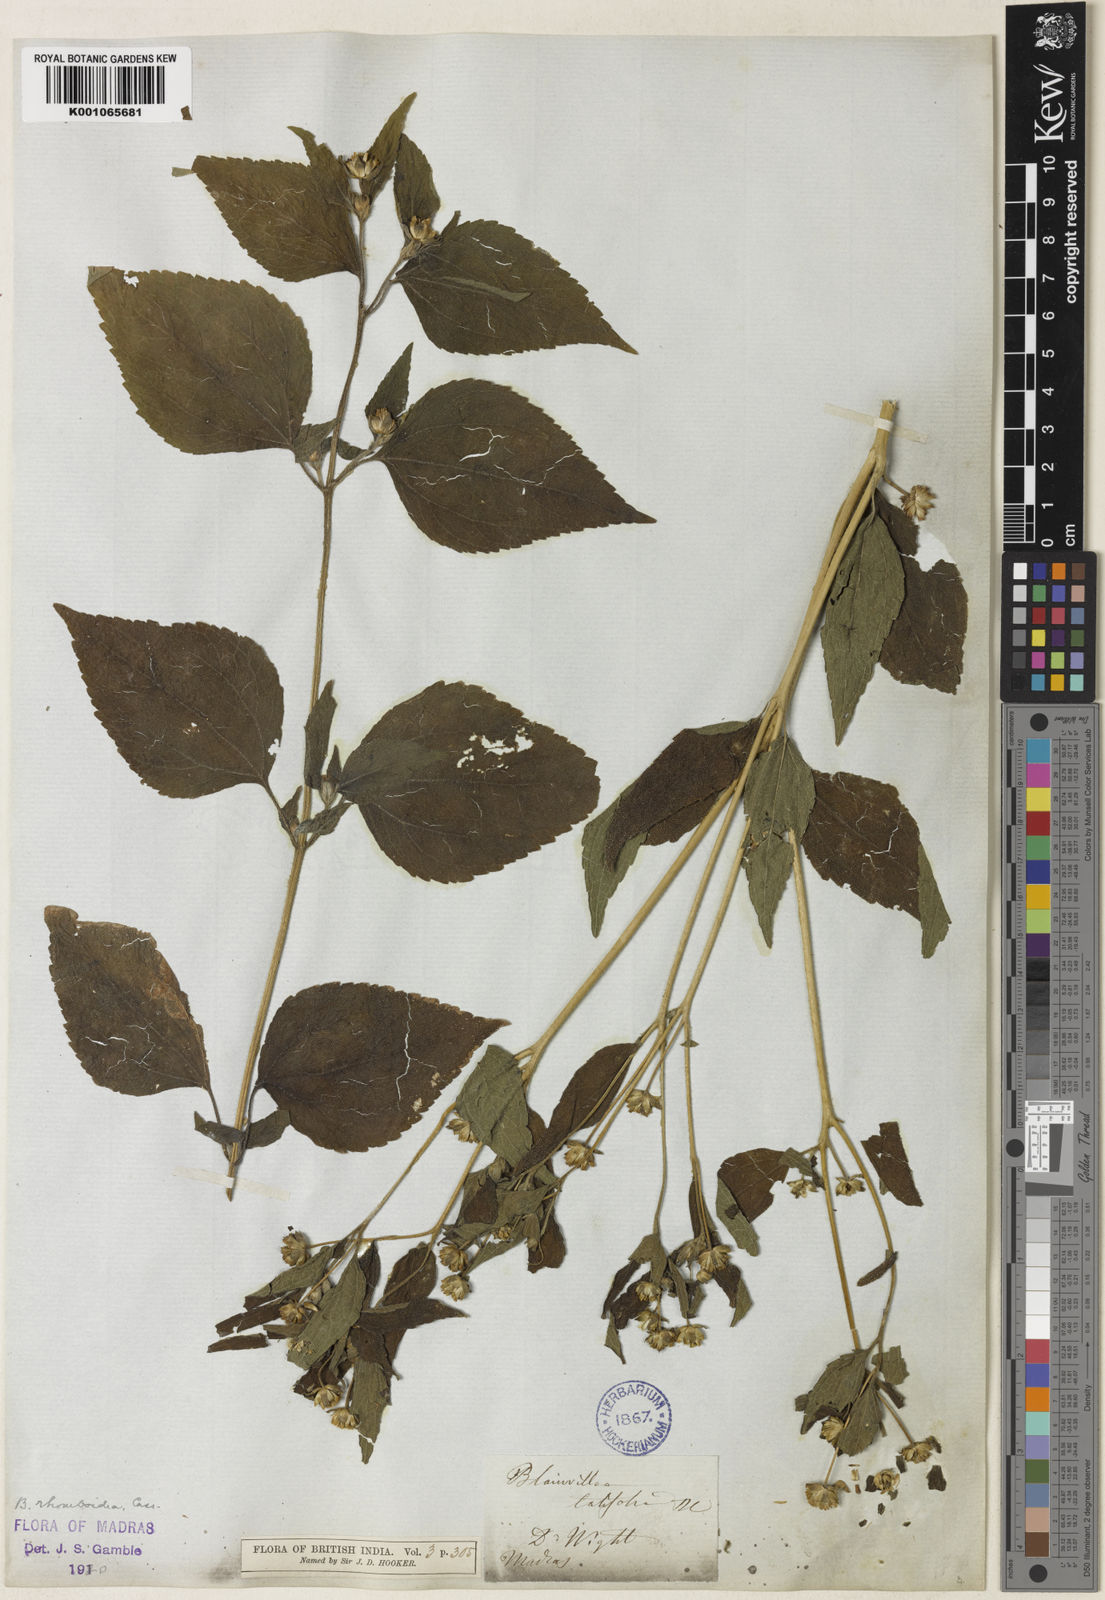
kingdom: Plantae
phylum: Tracheophyta
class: Magnoliopsida
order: Asterales
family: Asteraceae
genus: Blainvillea
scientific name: Blainvillea acmella
